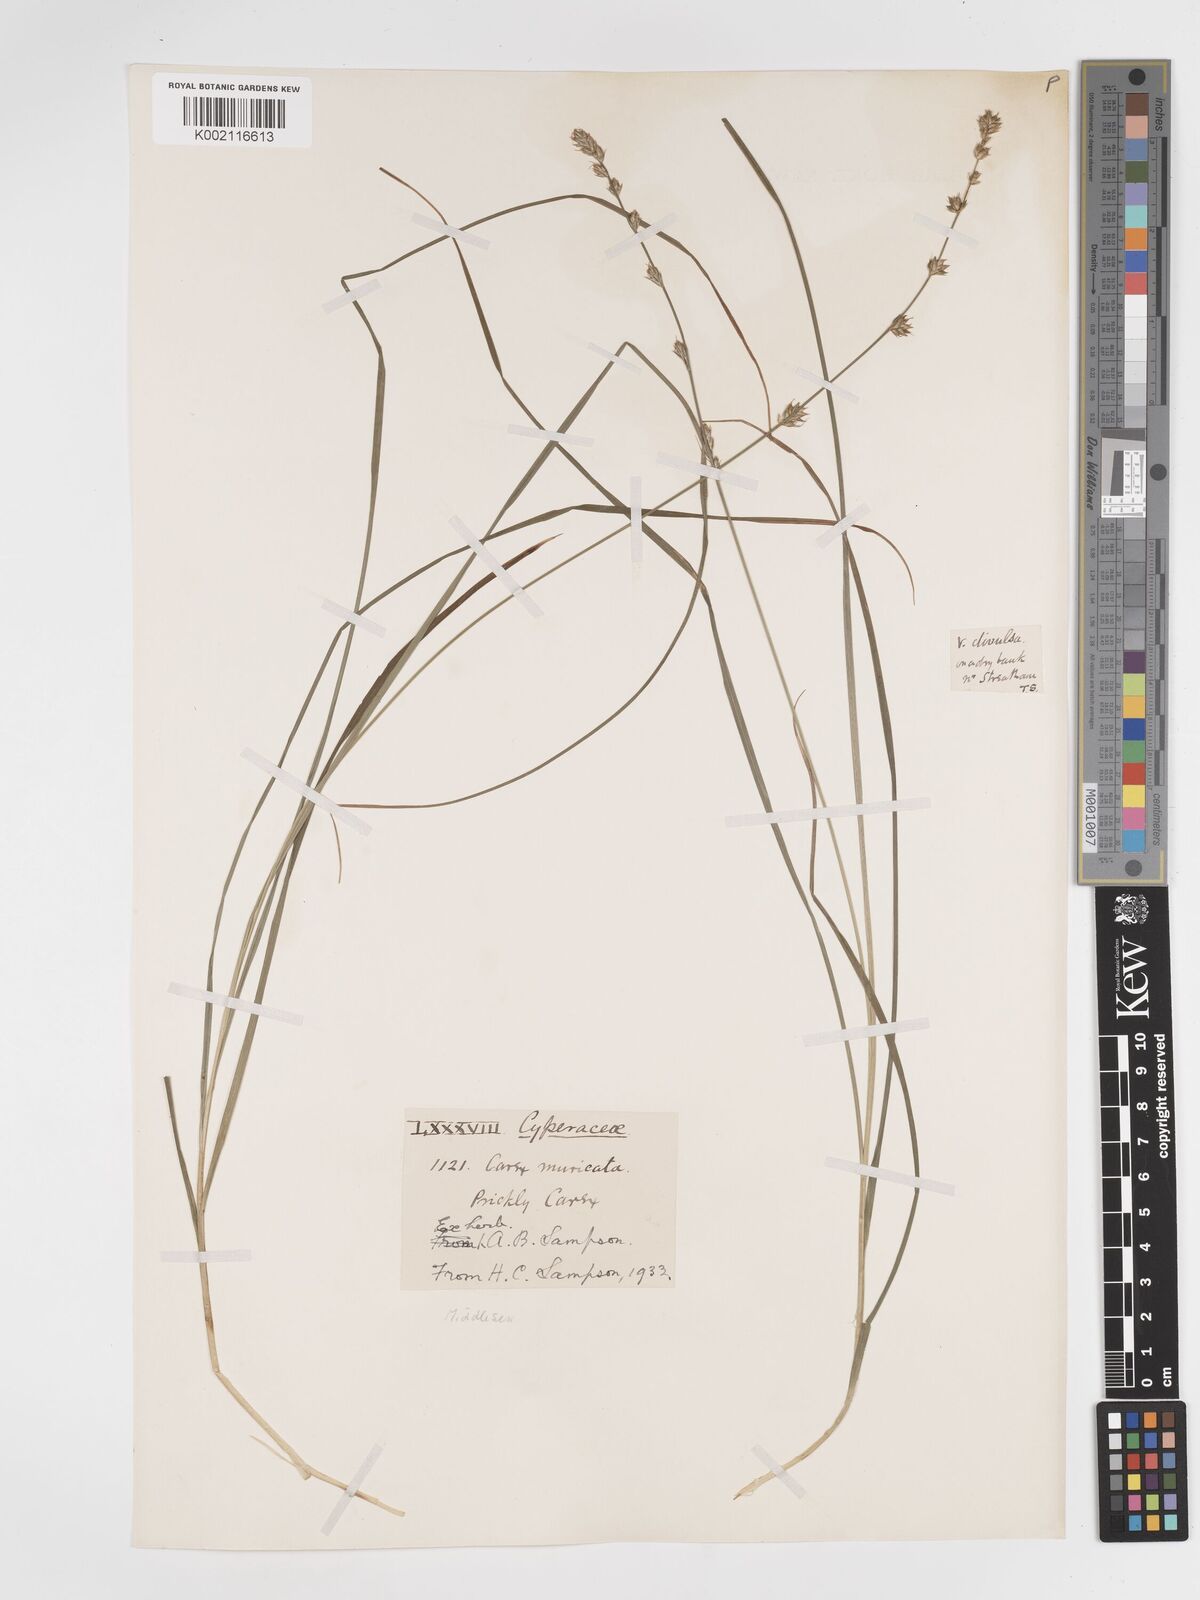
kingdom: Plantae
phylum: Tracheophyta
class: Liliopsida
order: Poales
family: Cyperaceae
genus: Carex
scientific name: Carex divulsa
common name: Grassland sedge
